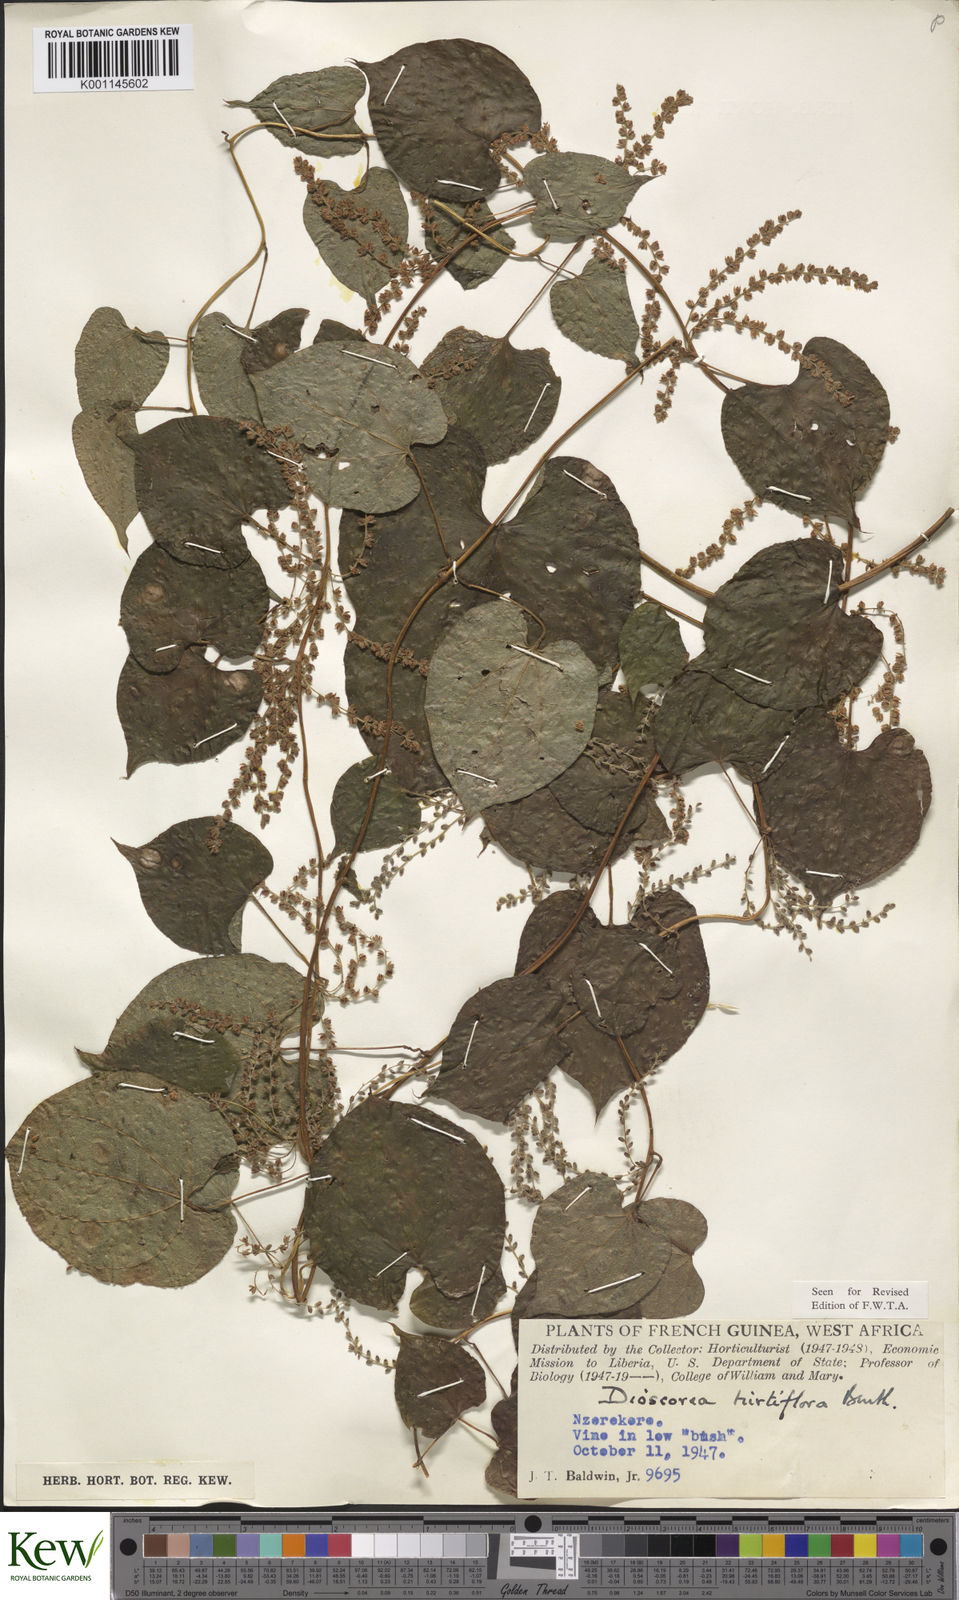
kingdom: Plantae
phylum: Tracheophyta
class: Liliopsida
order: Dioscoreales
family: Dioscoreaceae
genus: Dioscorea
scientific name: Dioscorea hirtiflora
